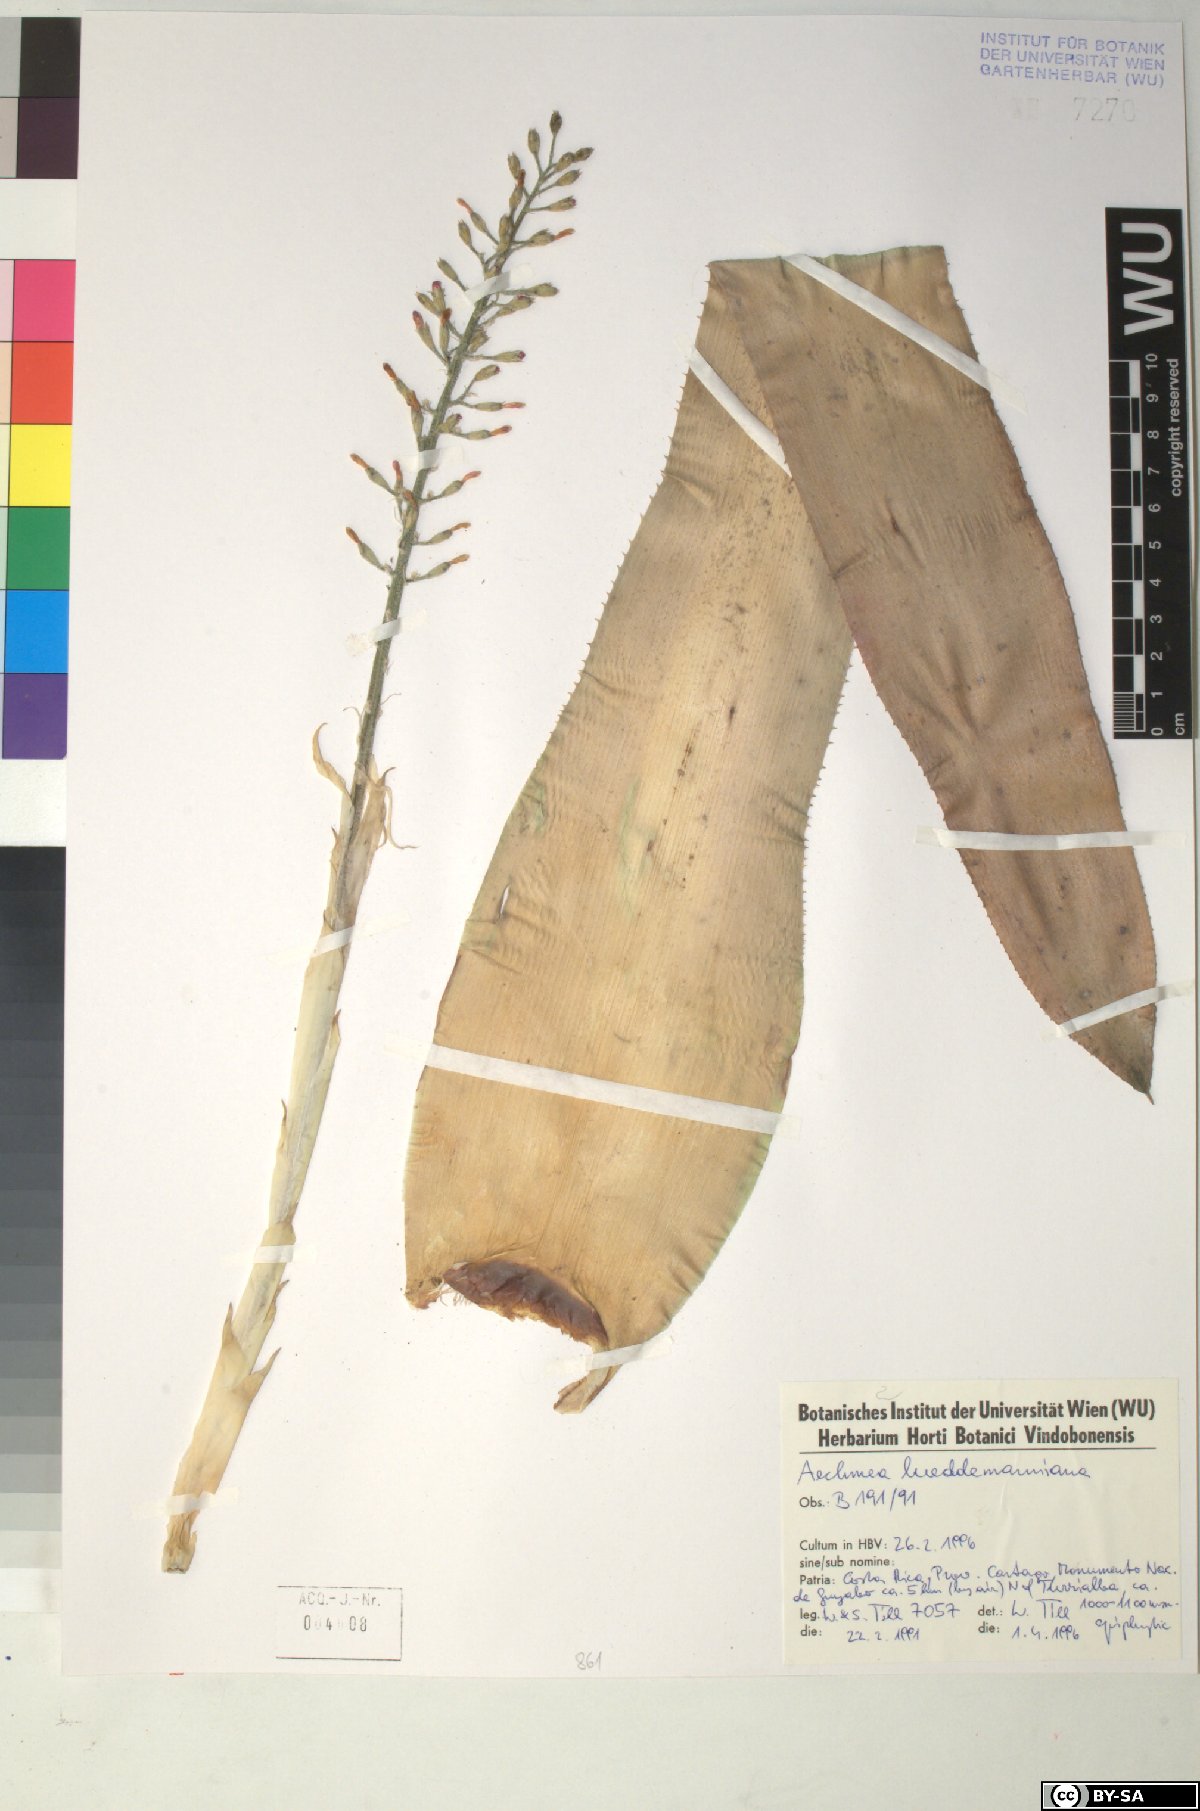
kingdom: Plantae
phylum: Tracheophyta
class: Liliopsida
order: Poales
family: Bromeliaceae
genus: Aechmea
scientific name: Aechmea lueddemanniana
